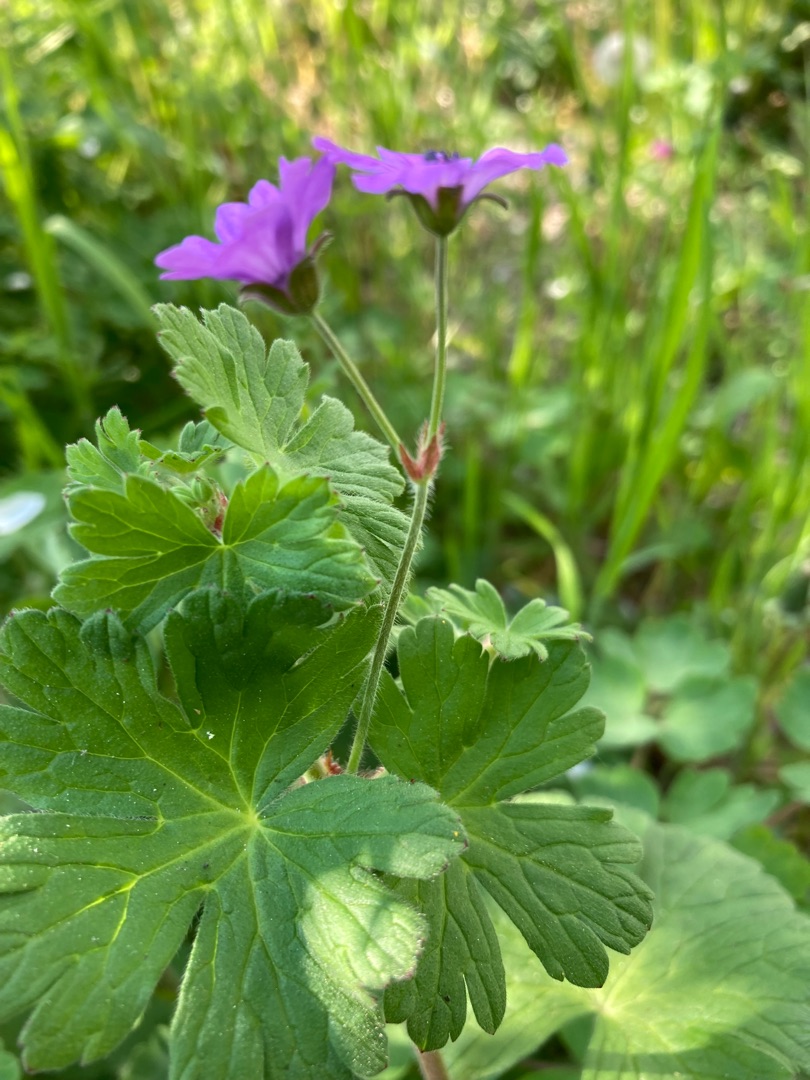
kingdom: Plantae
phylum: Tracheophyta
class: Magnoliopsida
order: Geraniales
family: Geraniaceae
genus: Geranium
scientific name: Geranium pyrenaicum
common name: Pyrenæisk storkenæb
